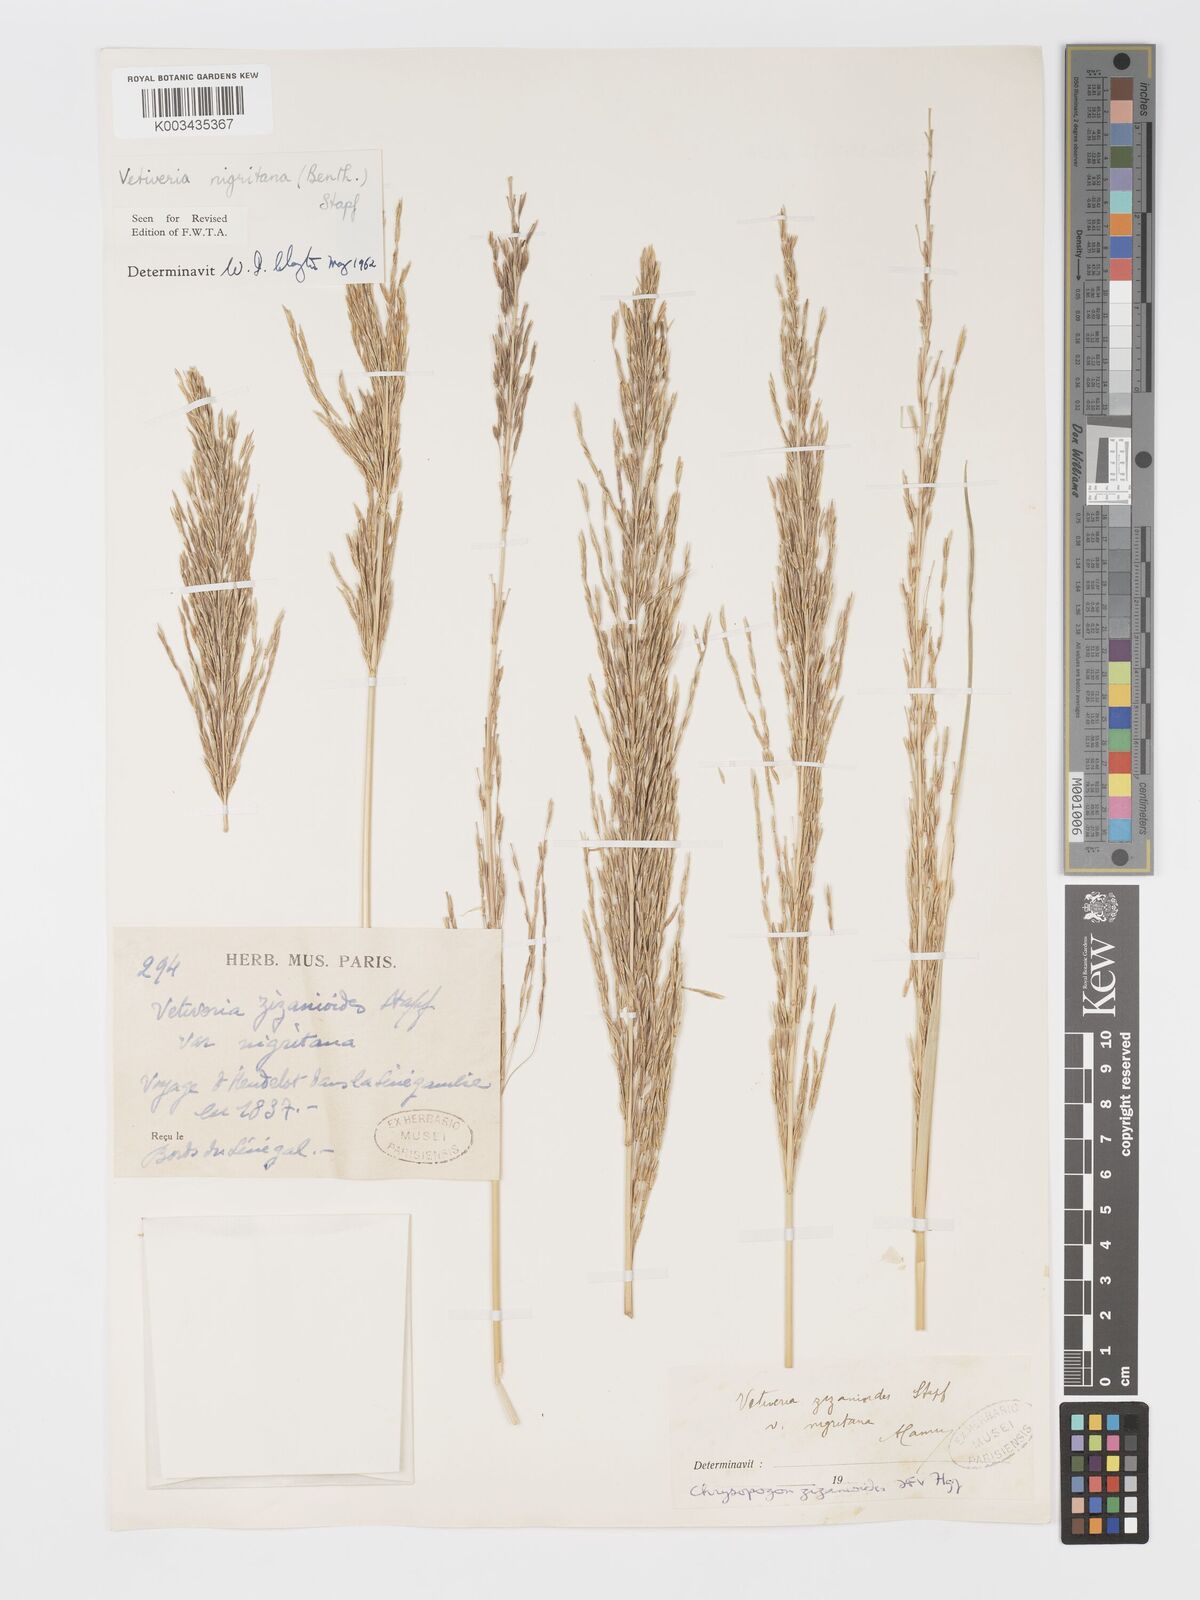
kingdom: Plantae
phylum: Tracheophyta
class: Liliopsida
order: Poales
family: Poaceae
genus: Chrysopogon
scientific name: Chrysopogon nigritanus
